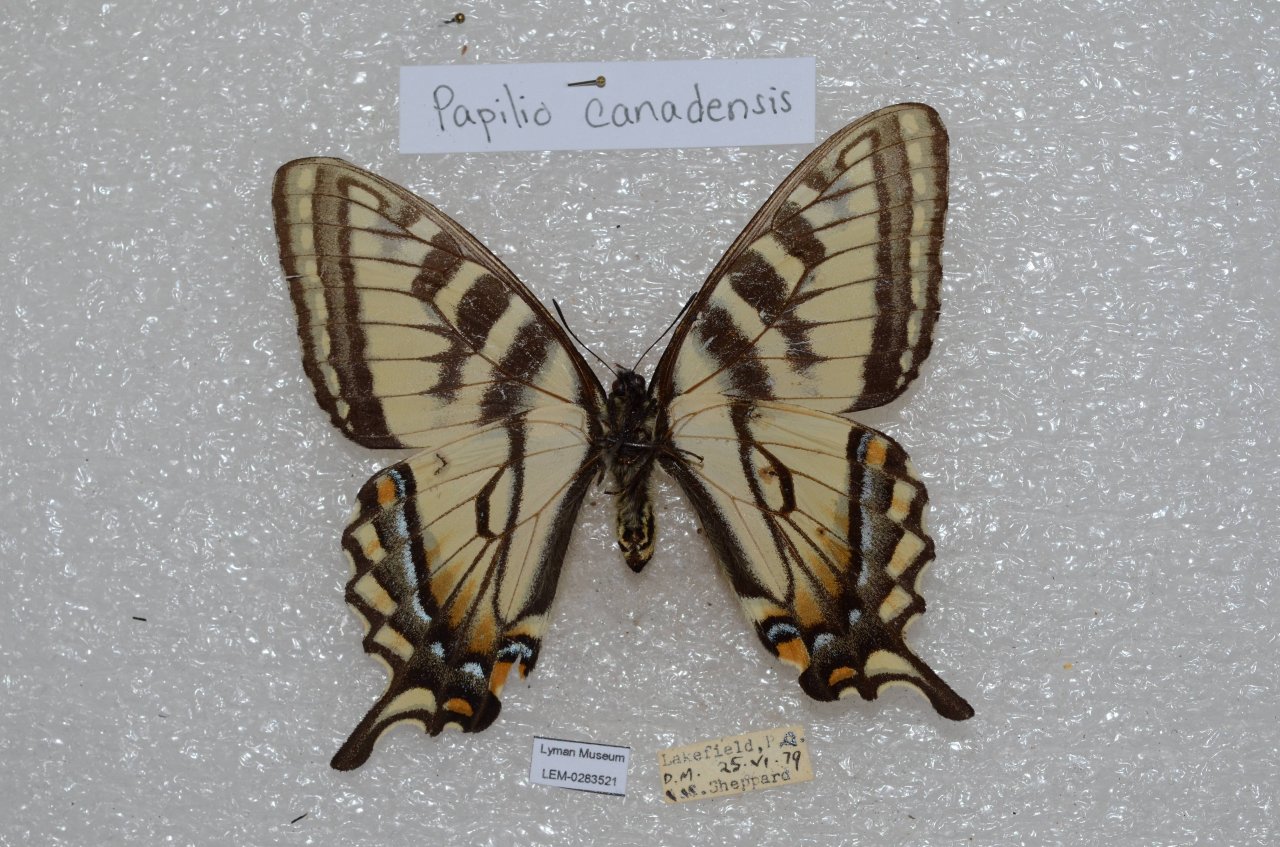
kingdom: Animalia
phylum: Arthropoda
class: Insecta
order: Lepidoptera
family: Papilionidae
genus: Pterourus
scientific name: Pterourus canadensis
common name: Canadian Tiger Swallowtail
